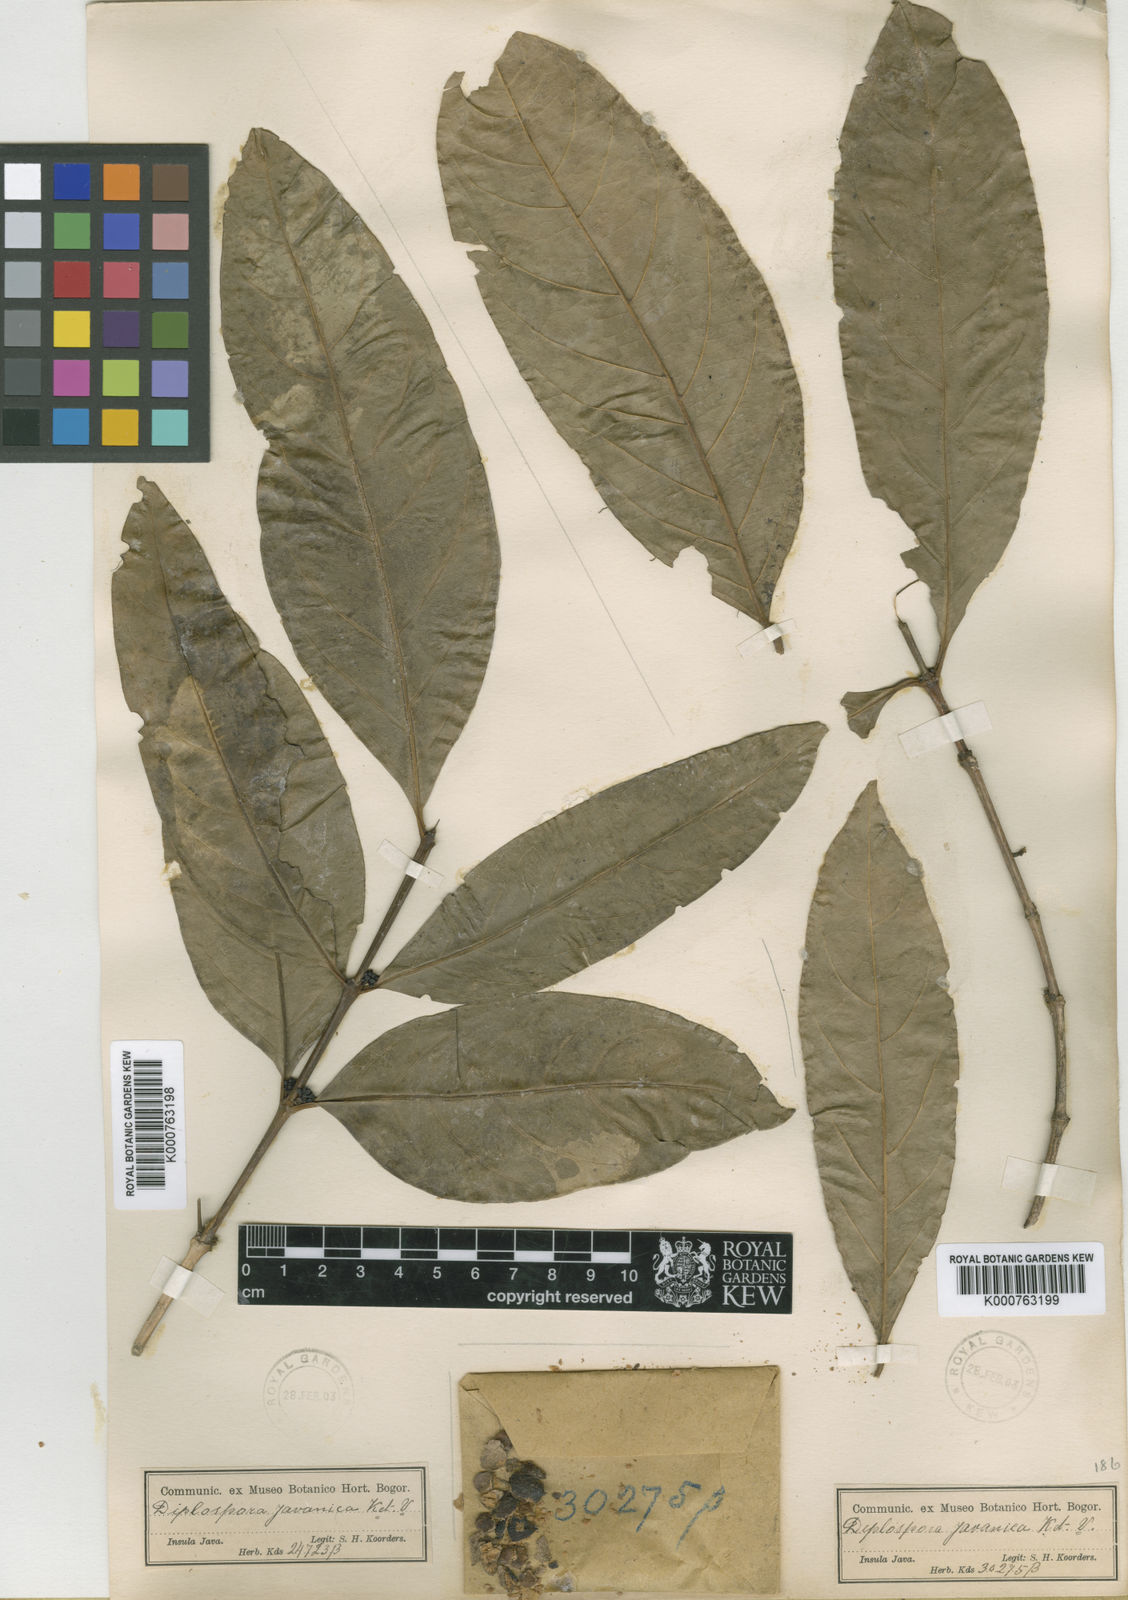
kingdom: Plantae
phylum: Tracheophyta
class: Magnoliopsida
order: Gentianales
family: Rubiaceae
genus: Discospermum
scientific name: Discospermum javanicum
